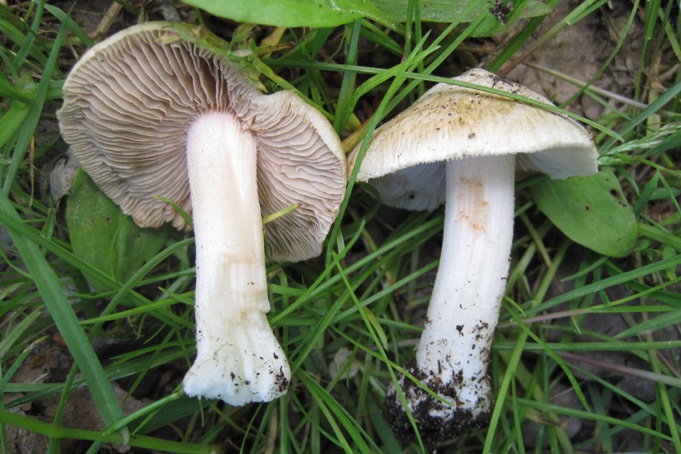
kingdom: Fungi
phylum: Basidiomycota
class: Agaricomycetes
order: Agaricales
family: Inocybaceae
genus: Inosperma
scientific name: Inosperma erubescens
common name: giftig trævlhat
